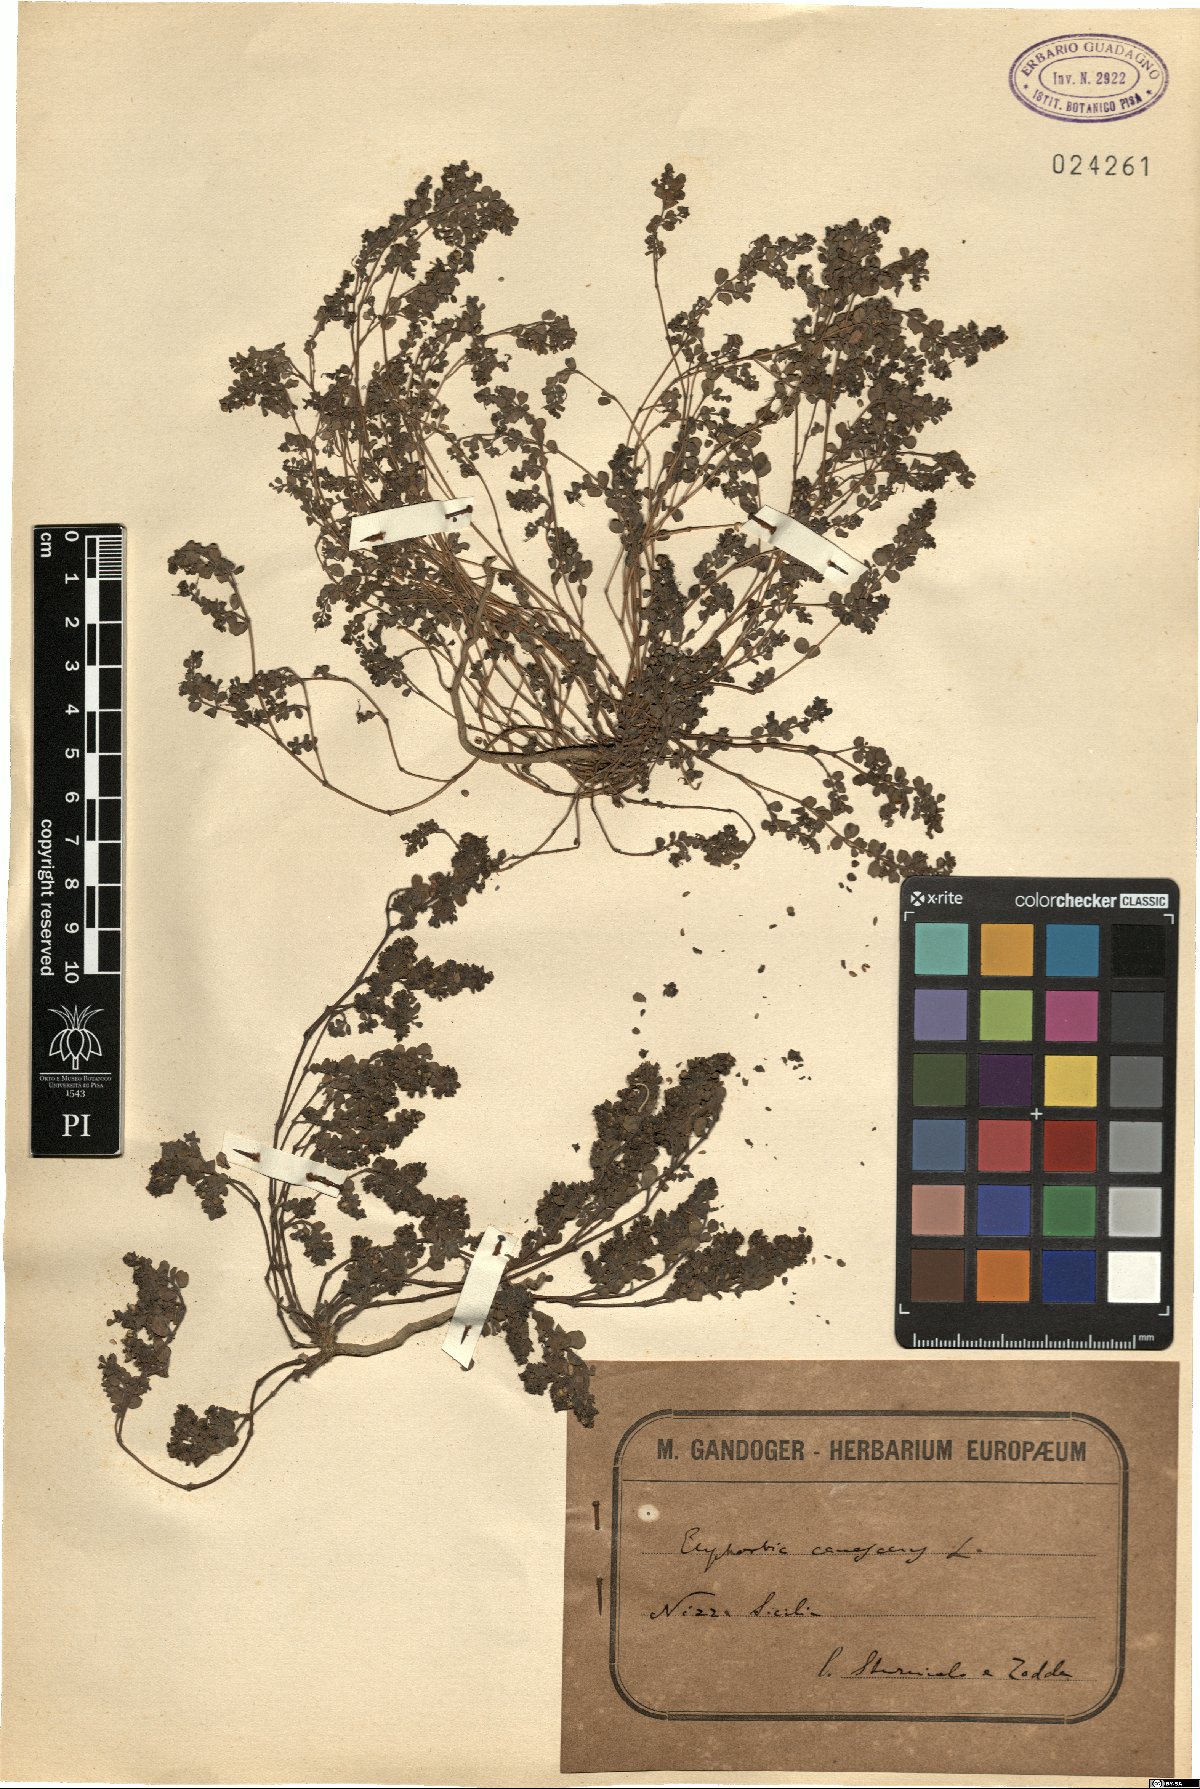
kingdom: Plantae
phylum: Tracheophyta
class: Magnoliopsida
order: Malpighiales
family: Euphorbiaceae
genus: Euphorbia
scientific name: Euphorbia chamaesyce
